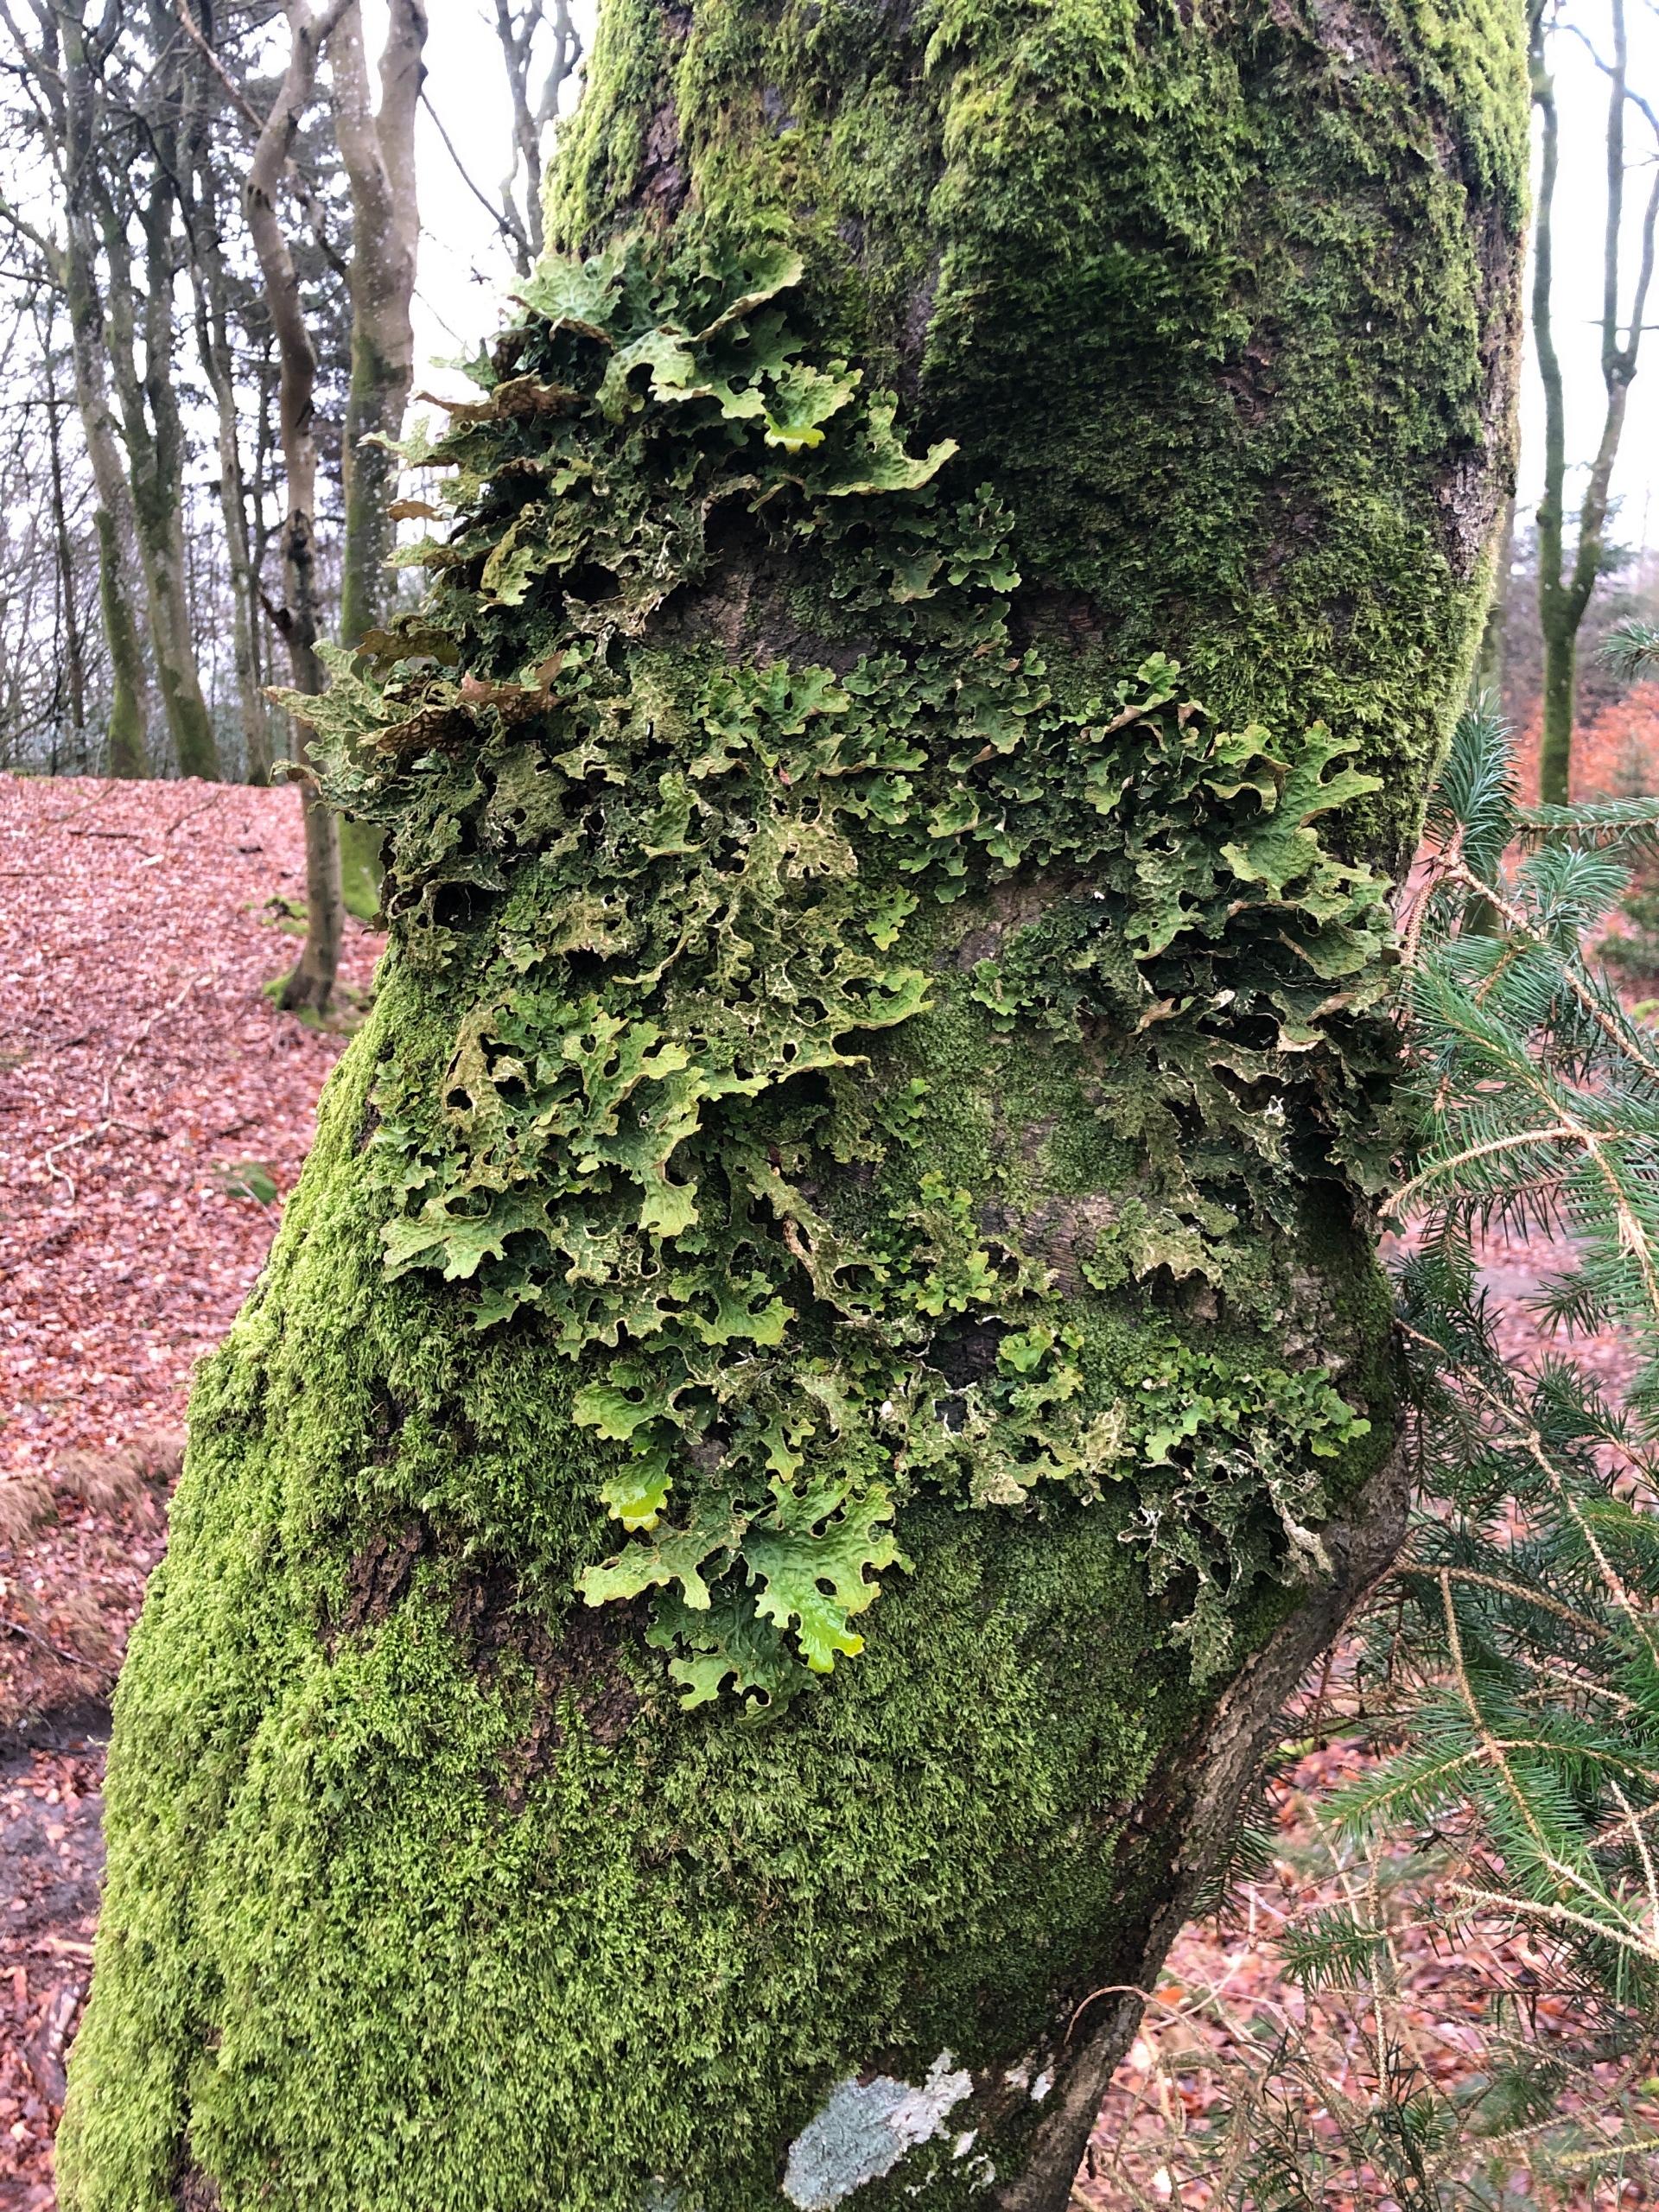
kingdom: Fungi
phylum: Ascomycota
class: Lecanoromycetes
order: Peltigerales
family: Lobariaceae
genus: Lobaria
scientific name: Lobaria pulmonaria
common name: Almindelig lungelav
